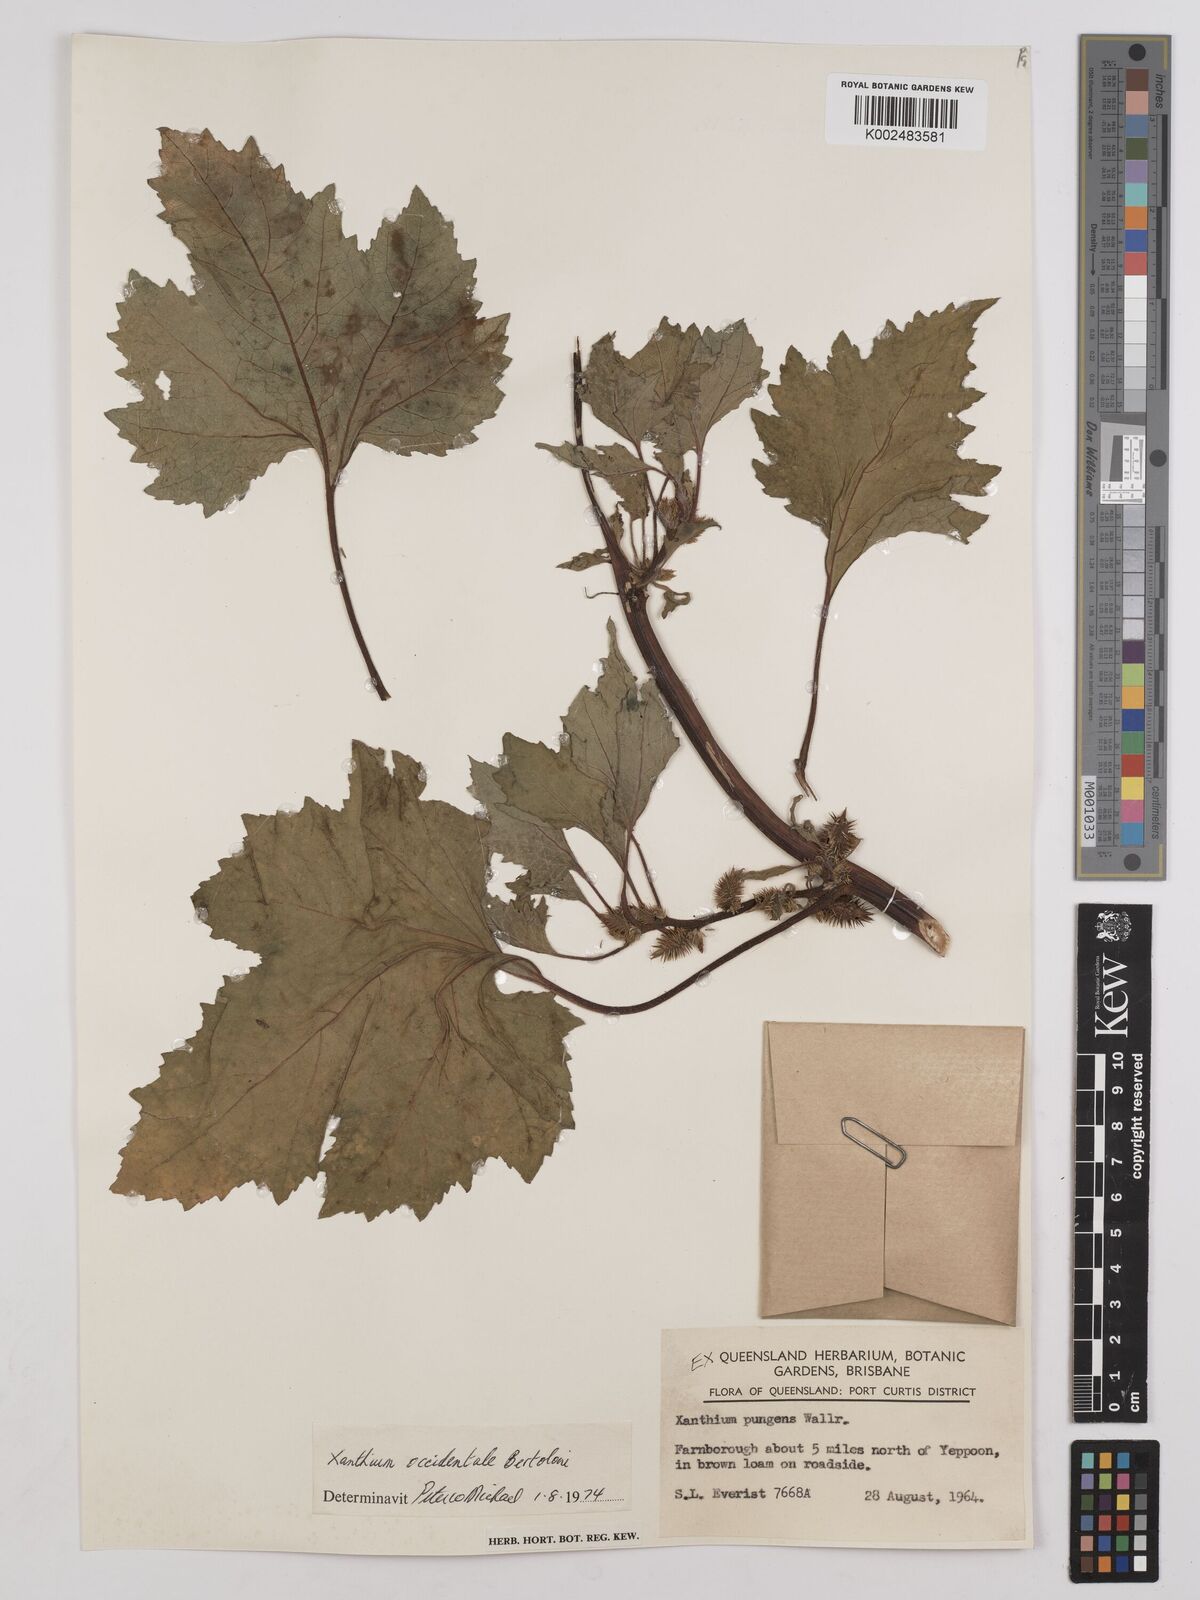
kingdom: Plantae
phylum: Tracheophyta
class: Magnoliopsida
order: Asterales
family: Asteraceae
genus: Xanthium
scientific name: Xanthium strumarium
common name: Rough cocklebur
